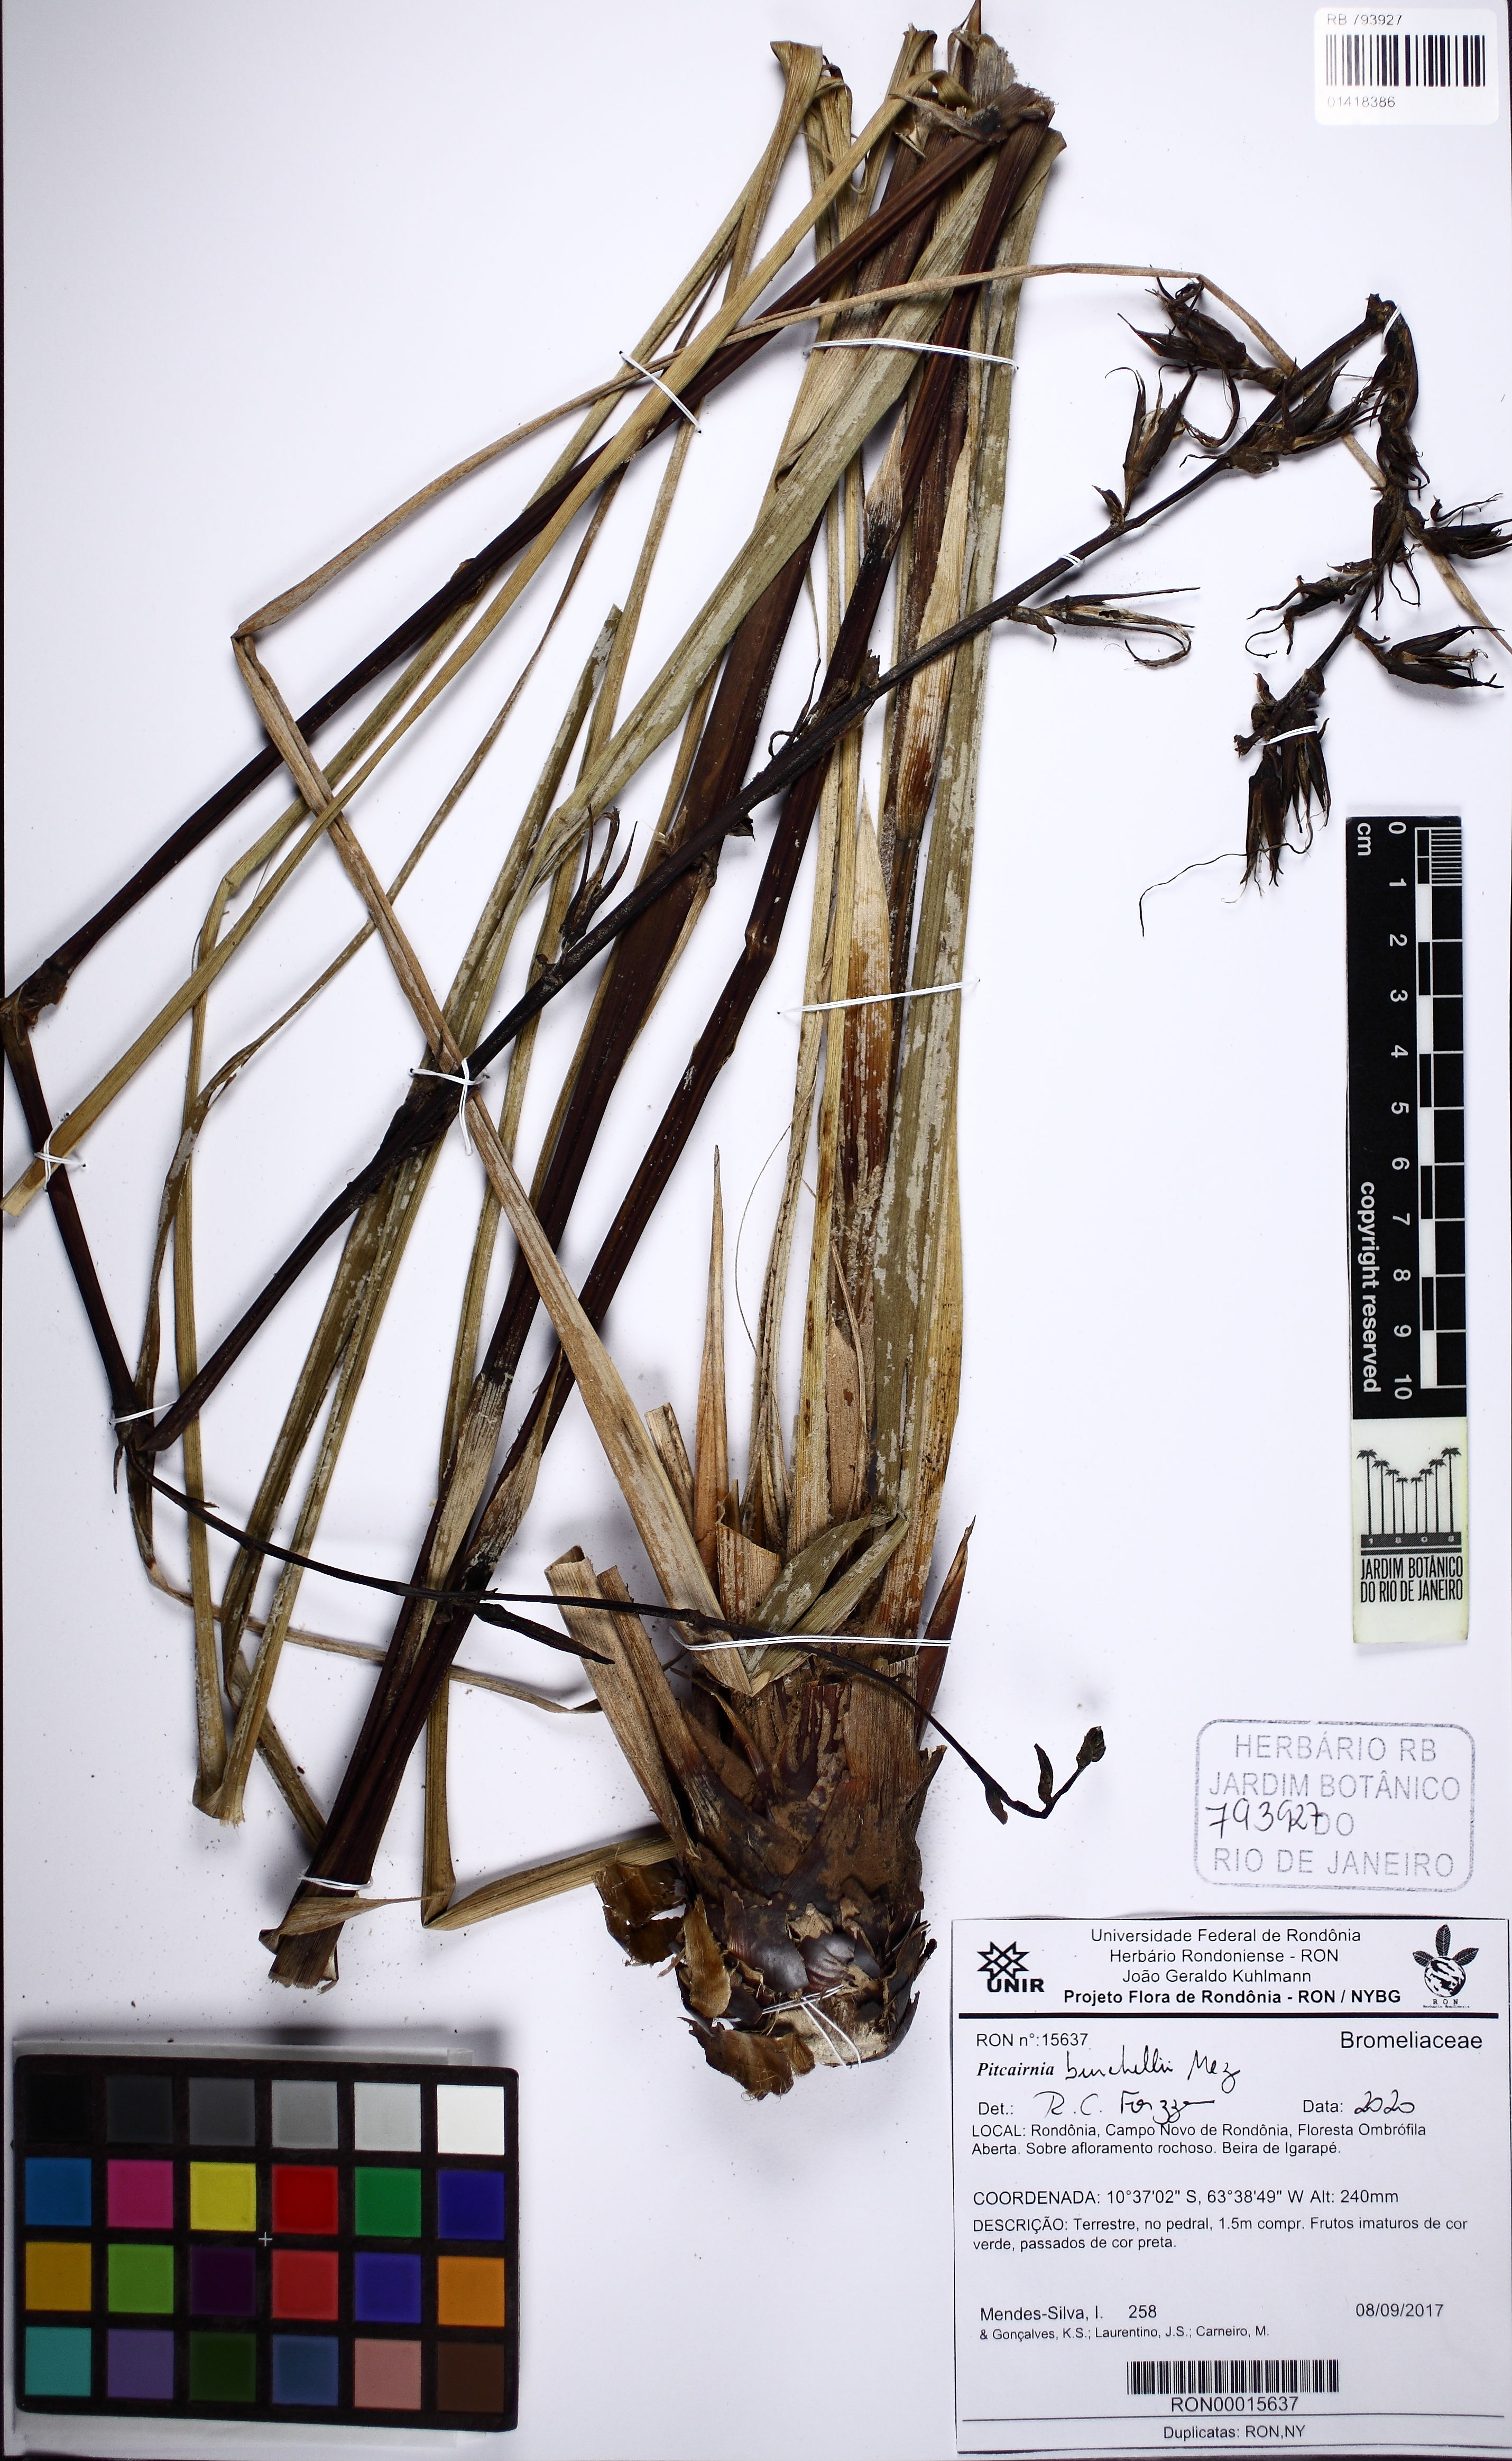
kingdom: Plantae
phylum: Tracheophyta
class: Liliopsida
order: Poales
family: Bromeliaceae
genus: Pitcairnia
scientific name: Pitcairnia lanuginosa
